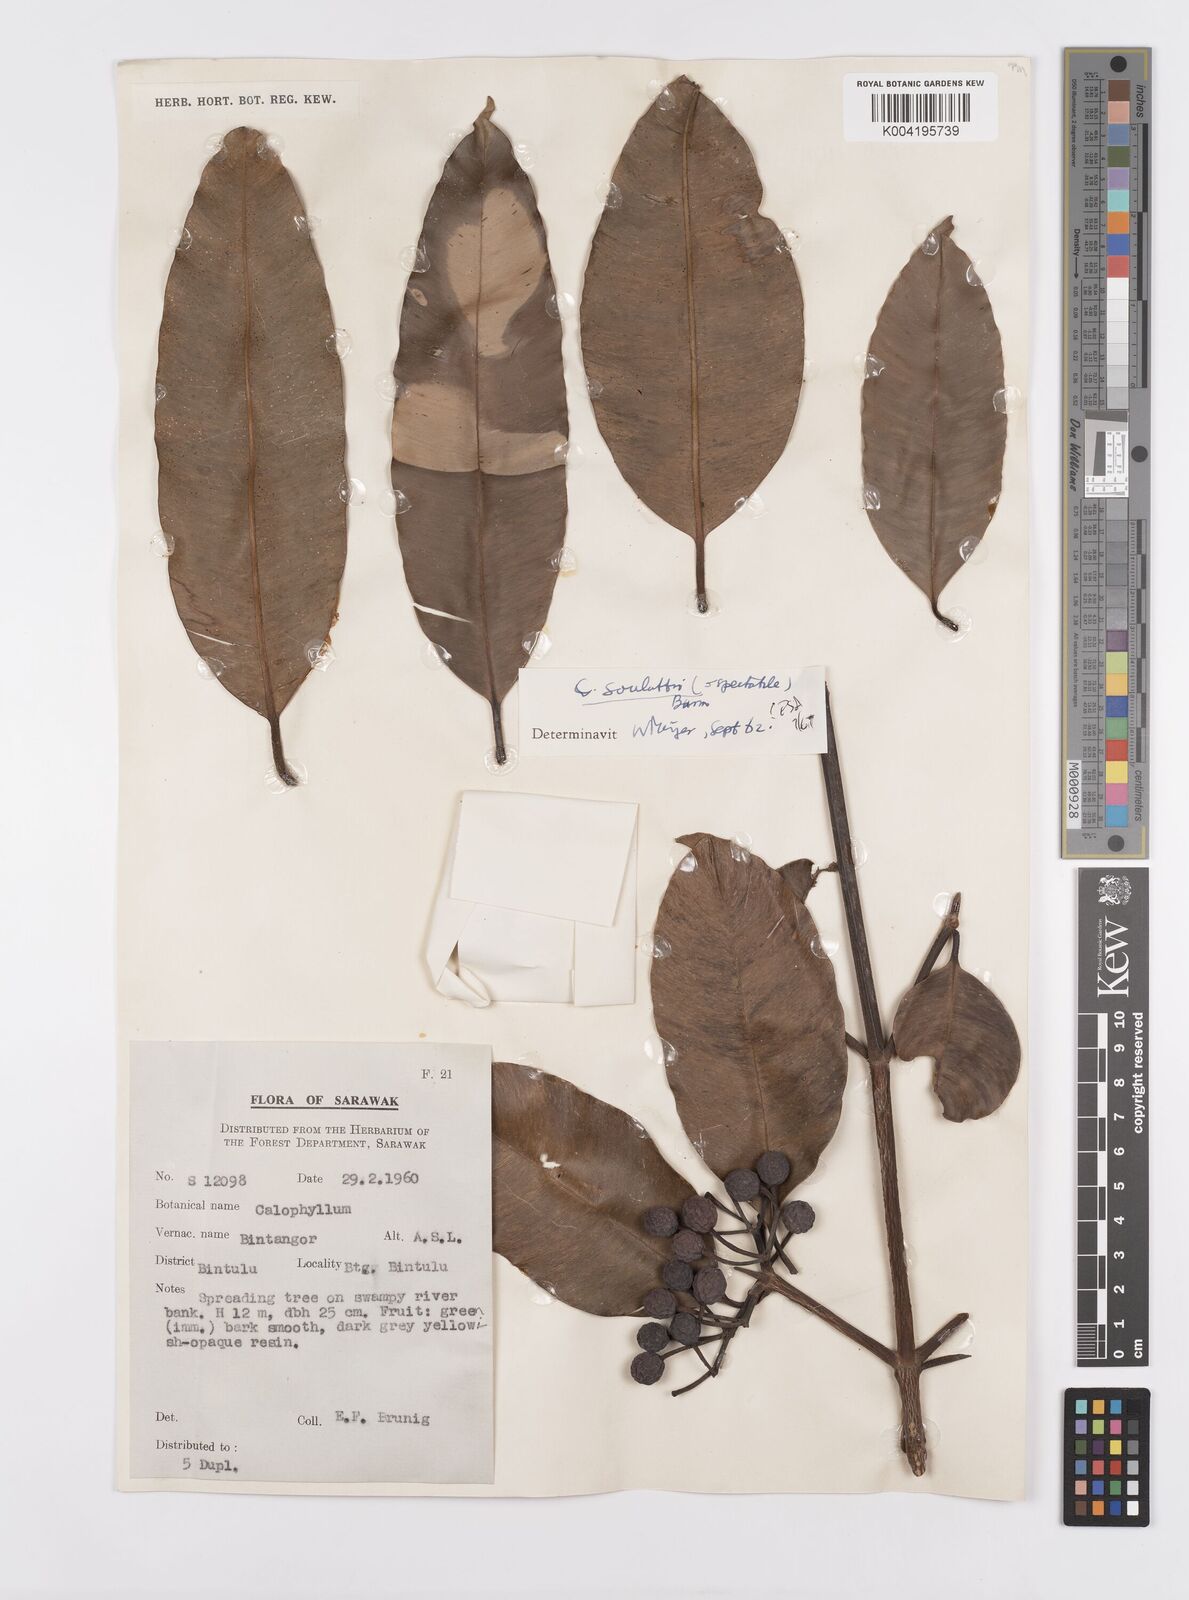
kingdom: Plantae
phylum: Tracheophyta
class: Magnoliopsida
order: Malpighiales
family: Calophyllaceae
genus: Calophyllum
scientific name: Calophyllum soulattri
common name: Bitangoor boonot
